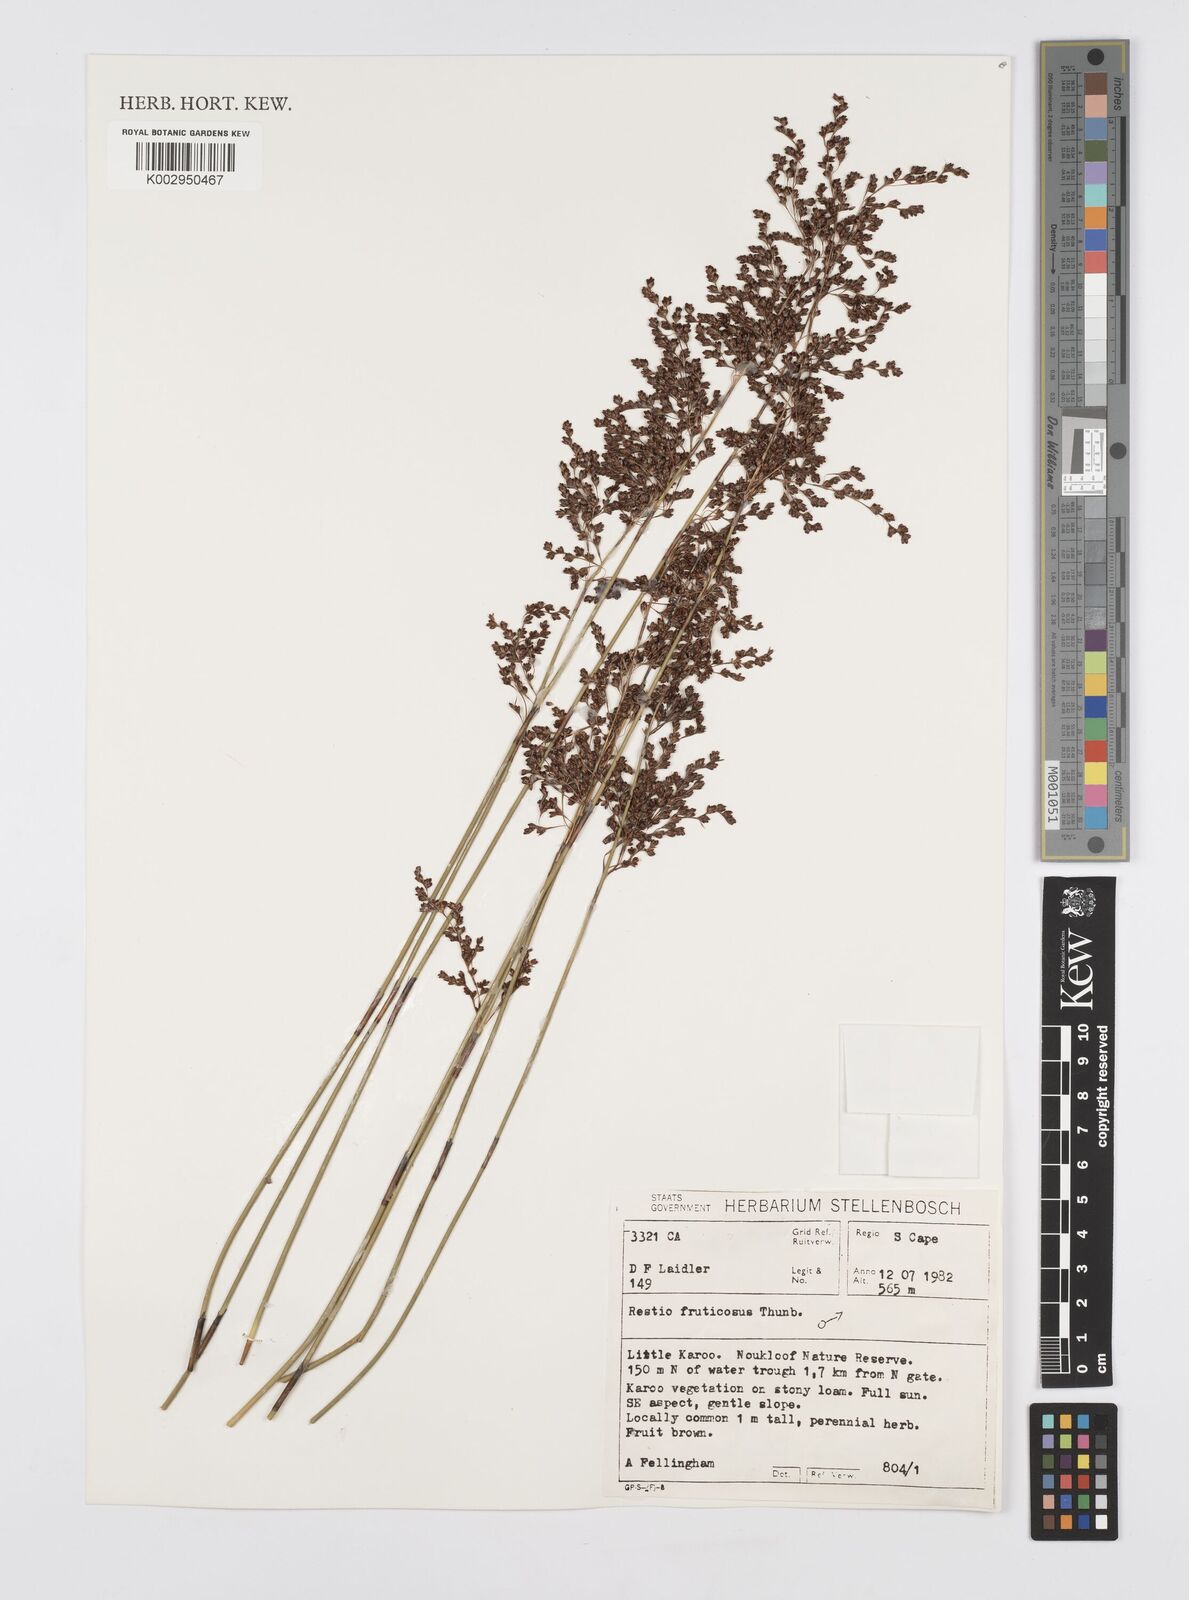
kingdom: Plantae
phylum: Tracheophyta
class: Liliopsida
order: Poales
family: Restionaceae
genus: Rhodocoma
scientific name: Rhodocoma fruticosa
